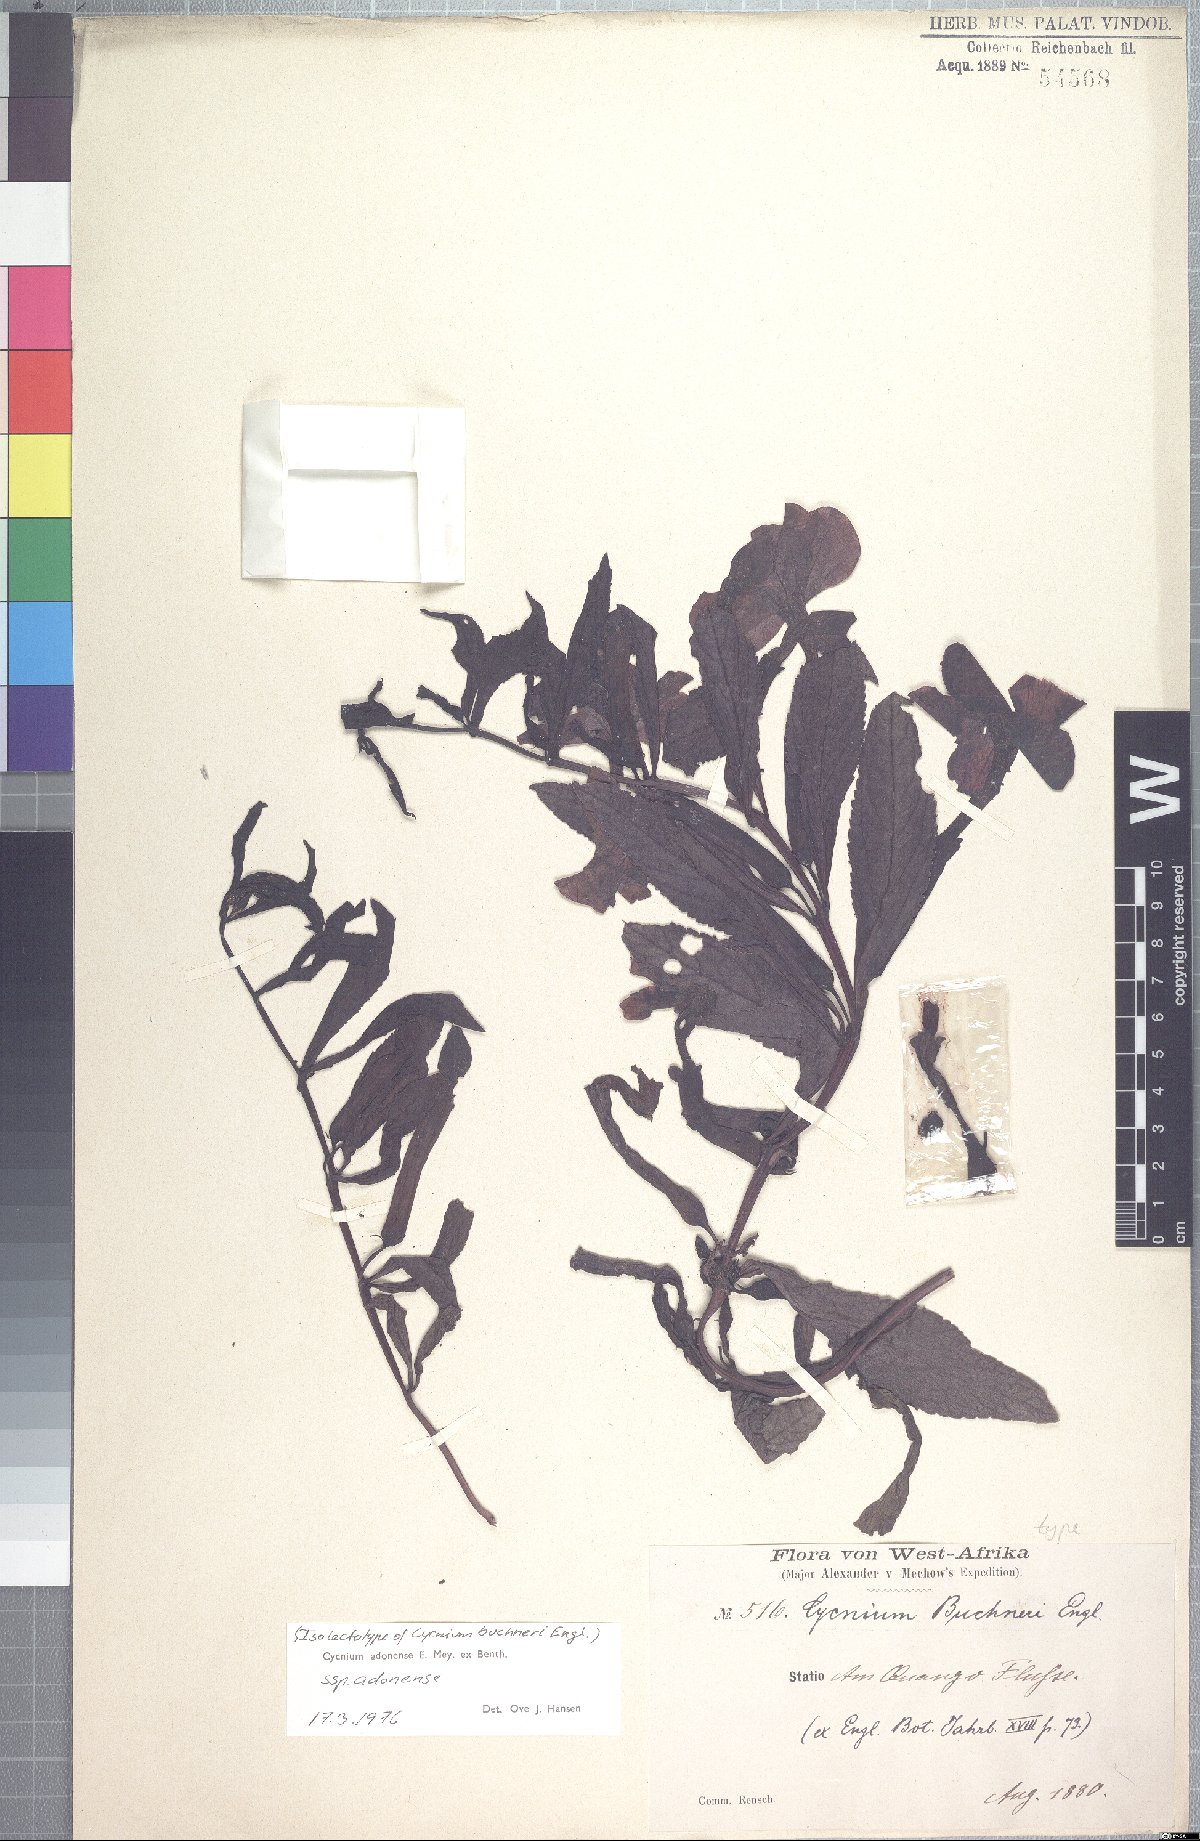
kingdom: Plantae
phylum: Tracheophyta
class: Magnoliopsida
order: Lamiales
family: Orobanchaceae
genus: Cycnium
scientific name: Cycnium adoense
